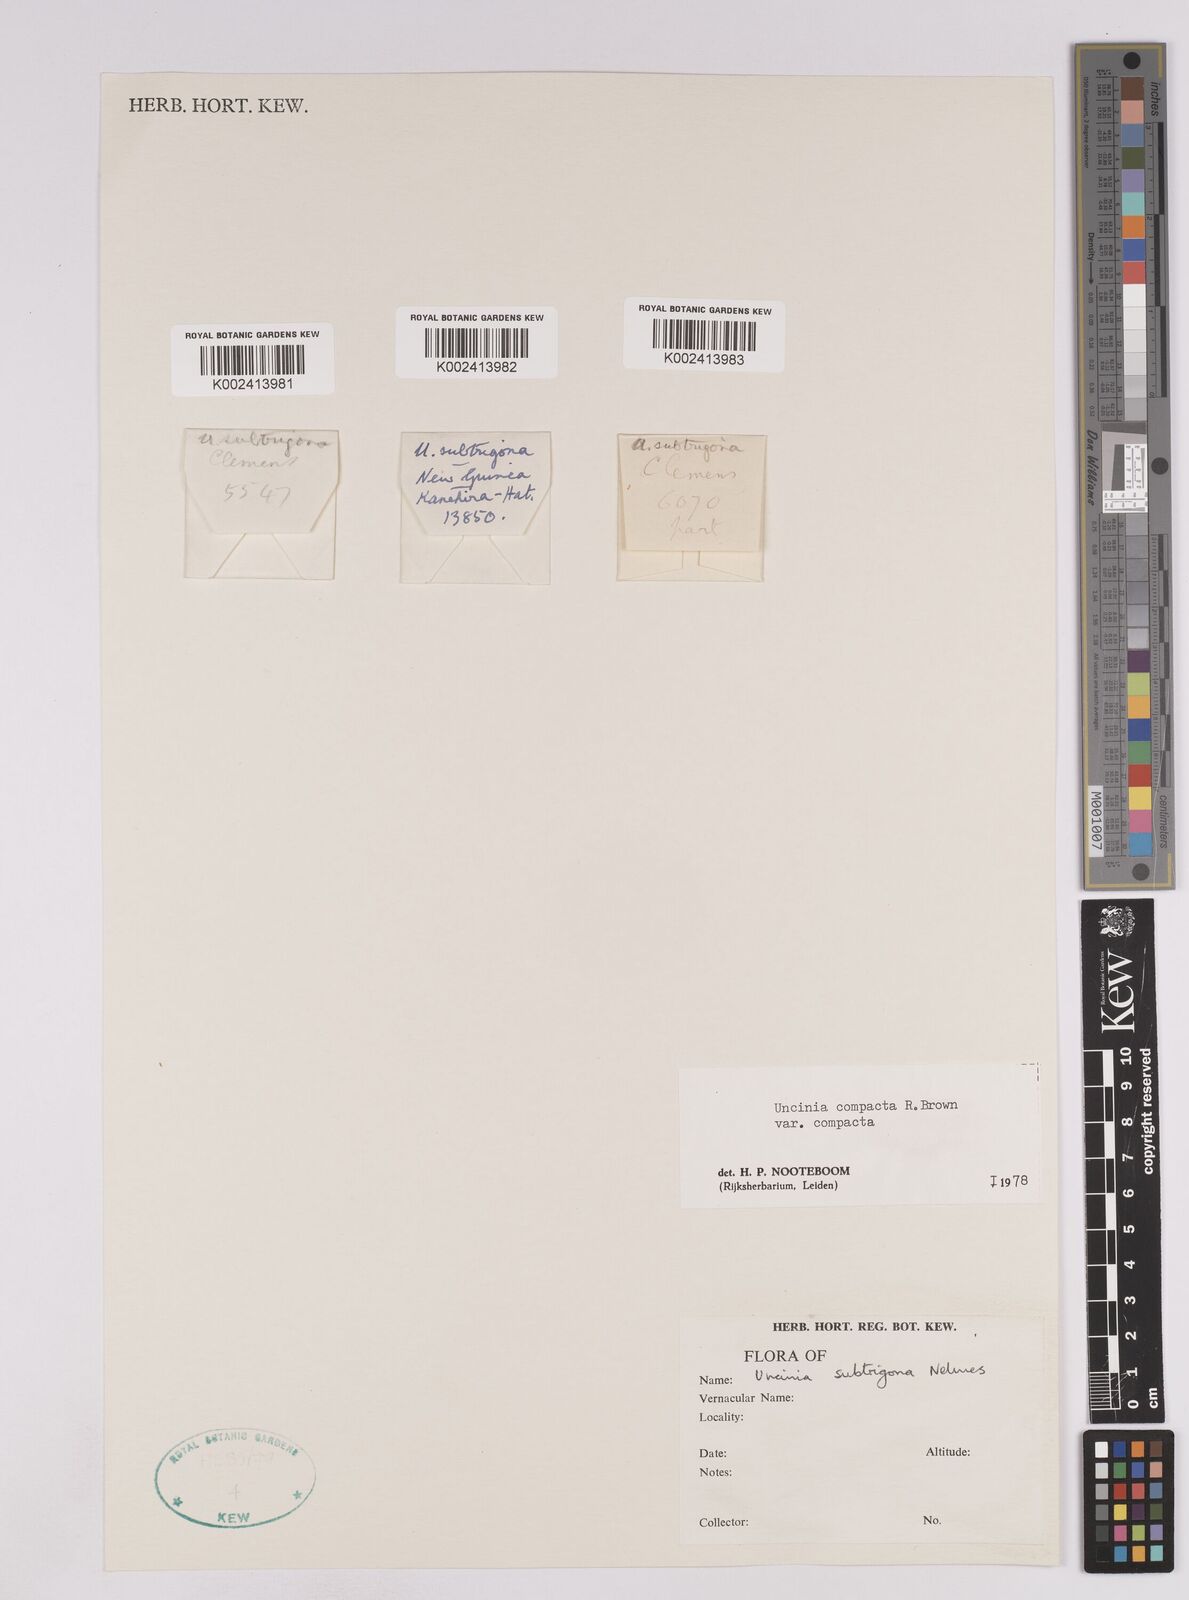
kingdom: Plantae
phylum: Tracheophyta
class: Liliopsida
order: Poales
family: Cyperaceae
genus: Carex
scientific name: Carex austrocompacta
